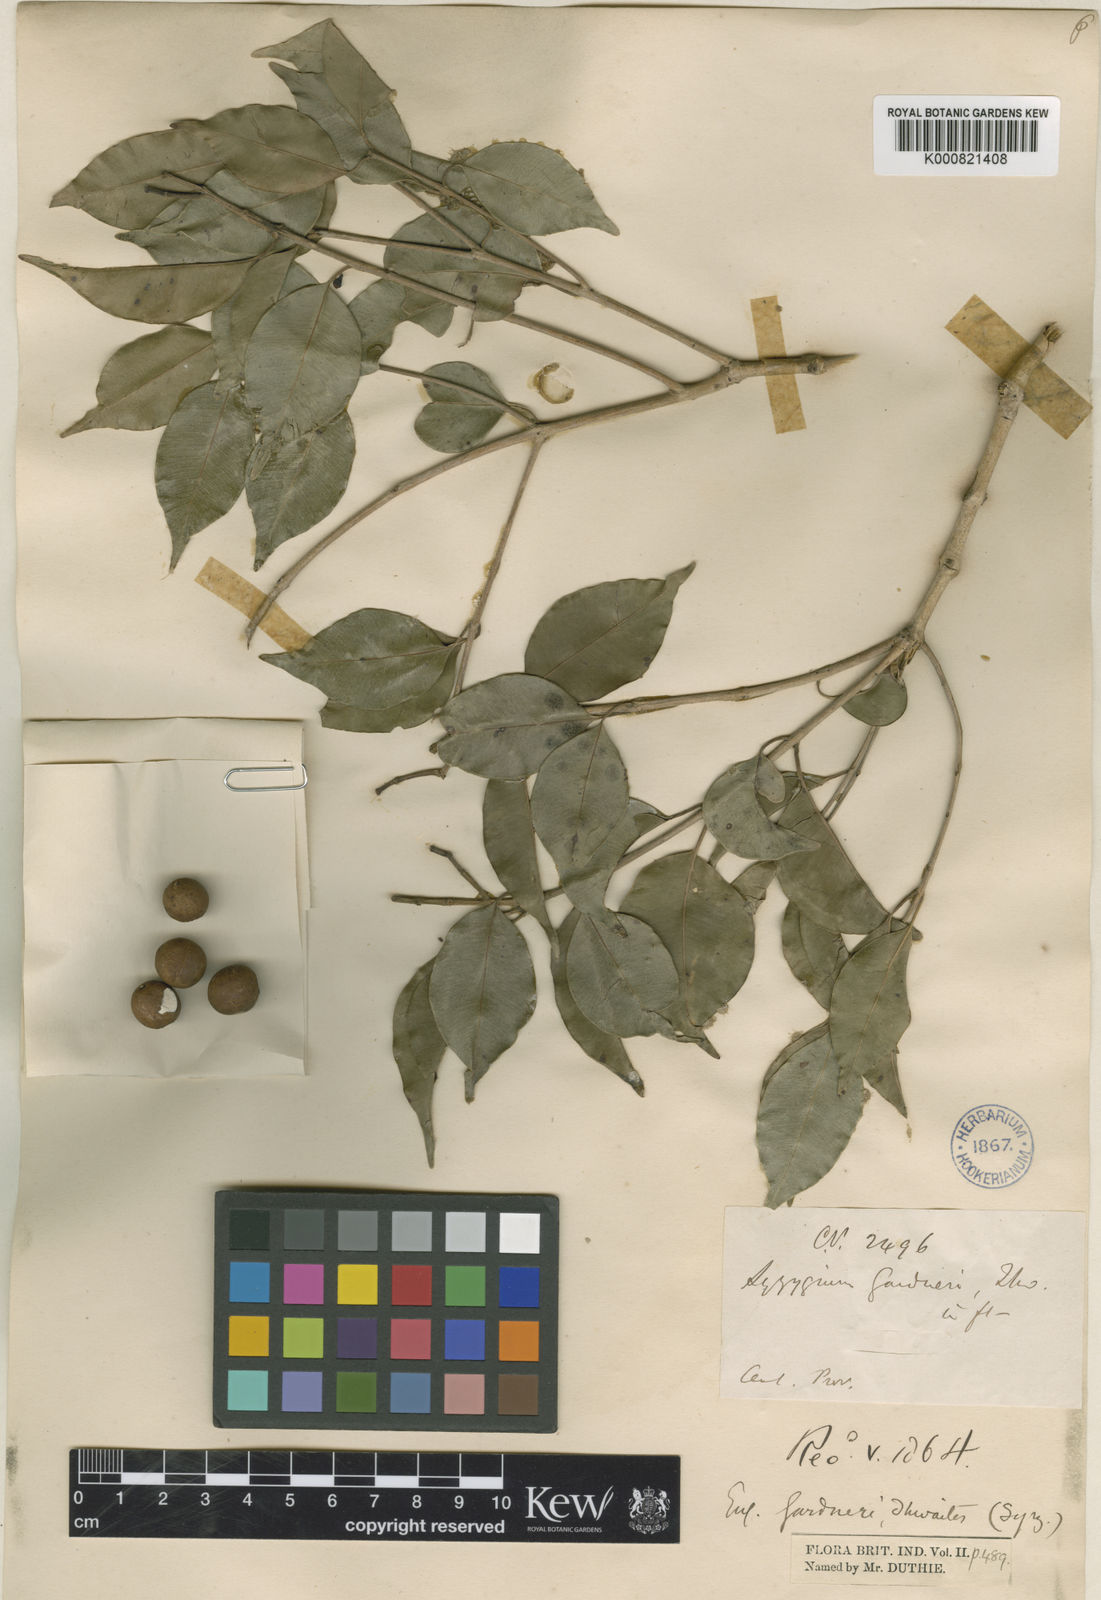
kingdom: Plantae
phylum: Tracheophyta
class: Magnoliopsida
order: Myrtales
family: Myrtaceae
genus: Syzygium
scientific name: Syzygium gardneri
